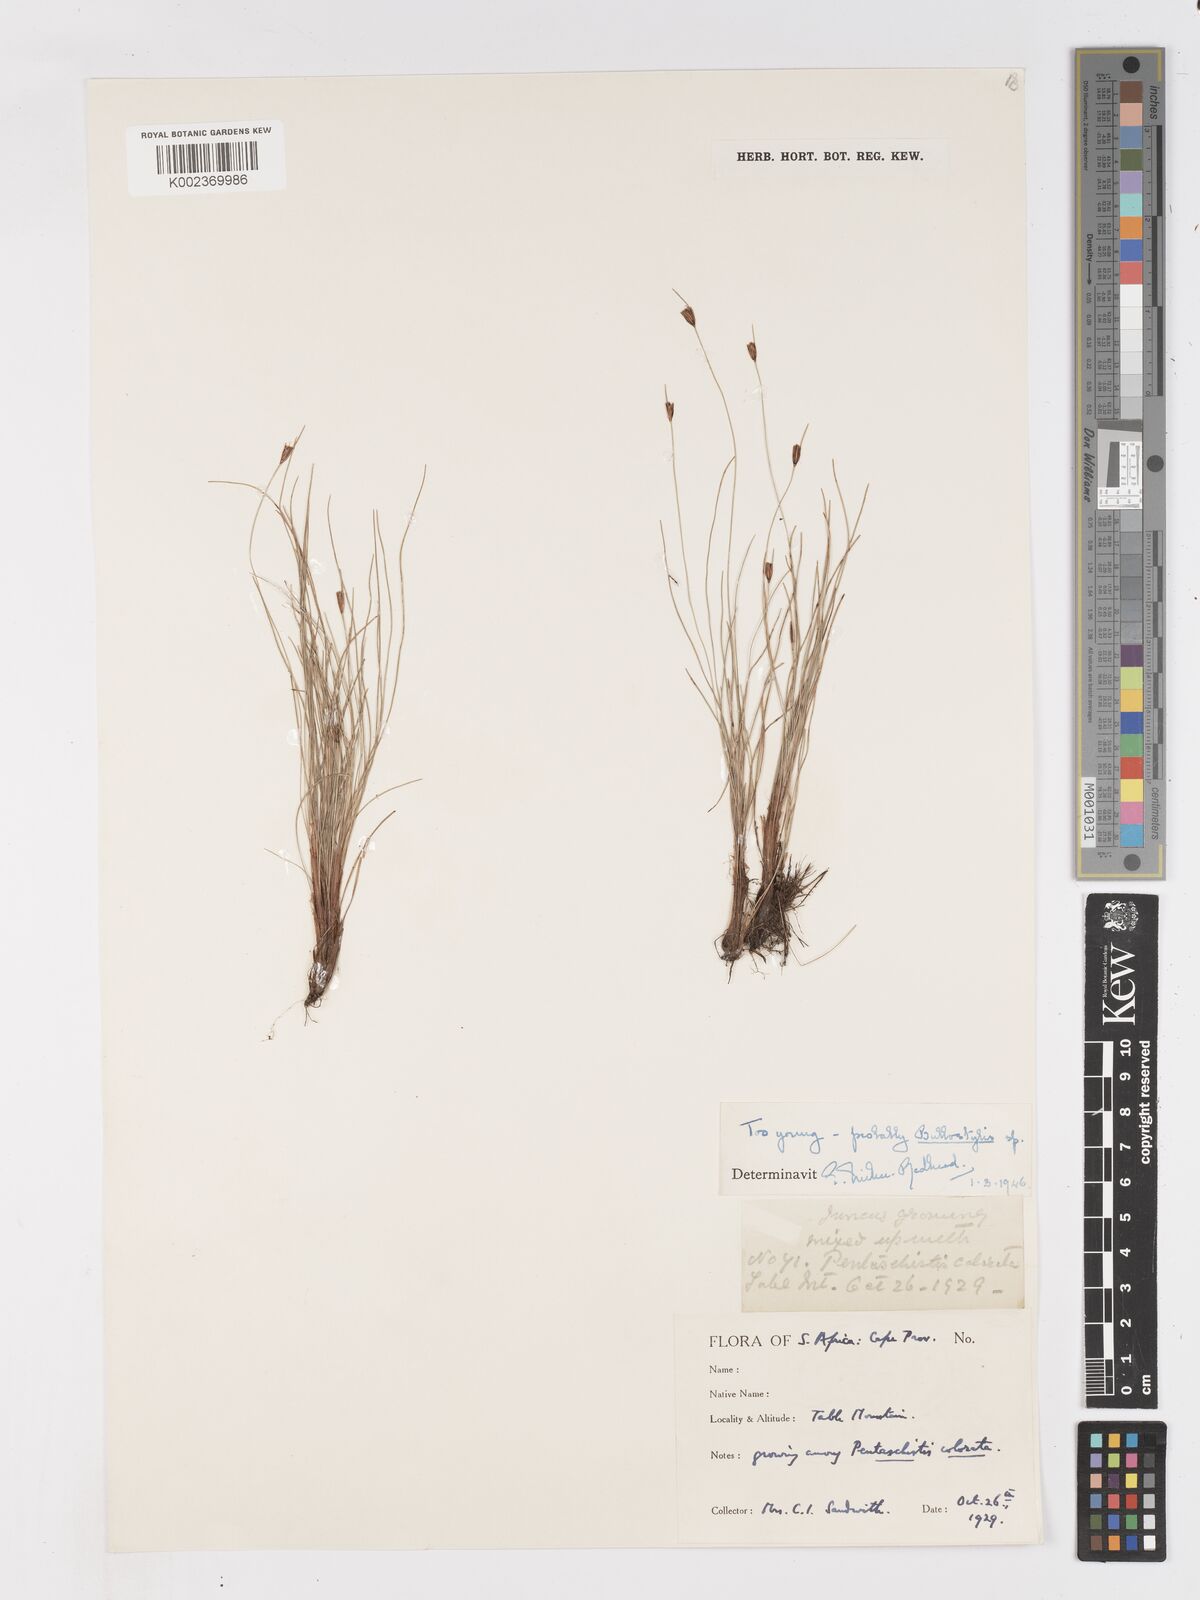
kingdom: Plantae
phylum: Tracheophyta
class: Liliopsida
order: Poales
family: Cyperaceae
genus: Ficinia
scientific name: Ficinia zeyheri
